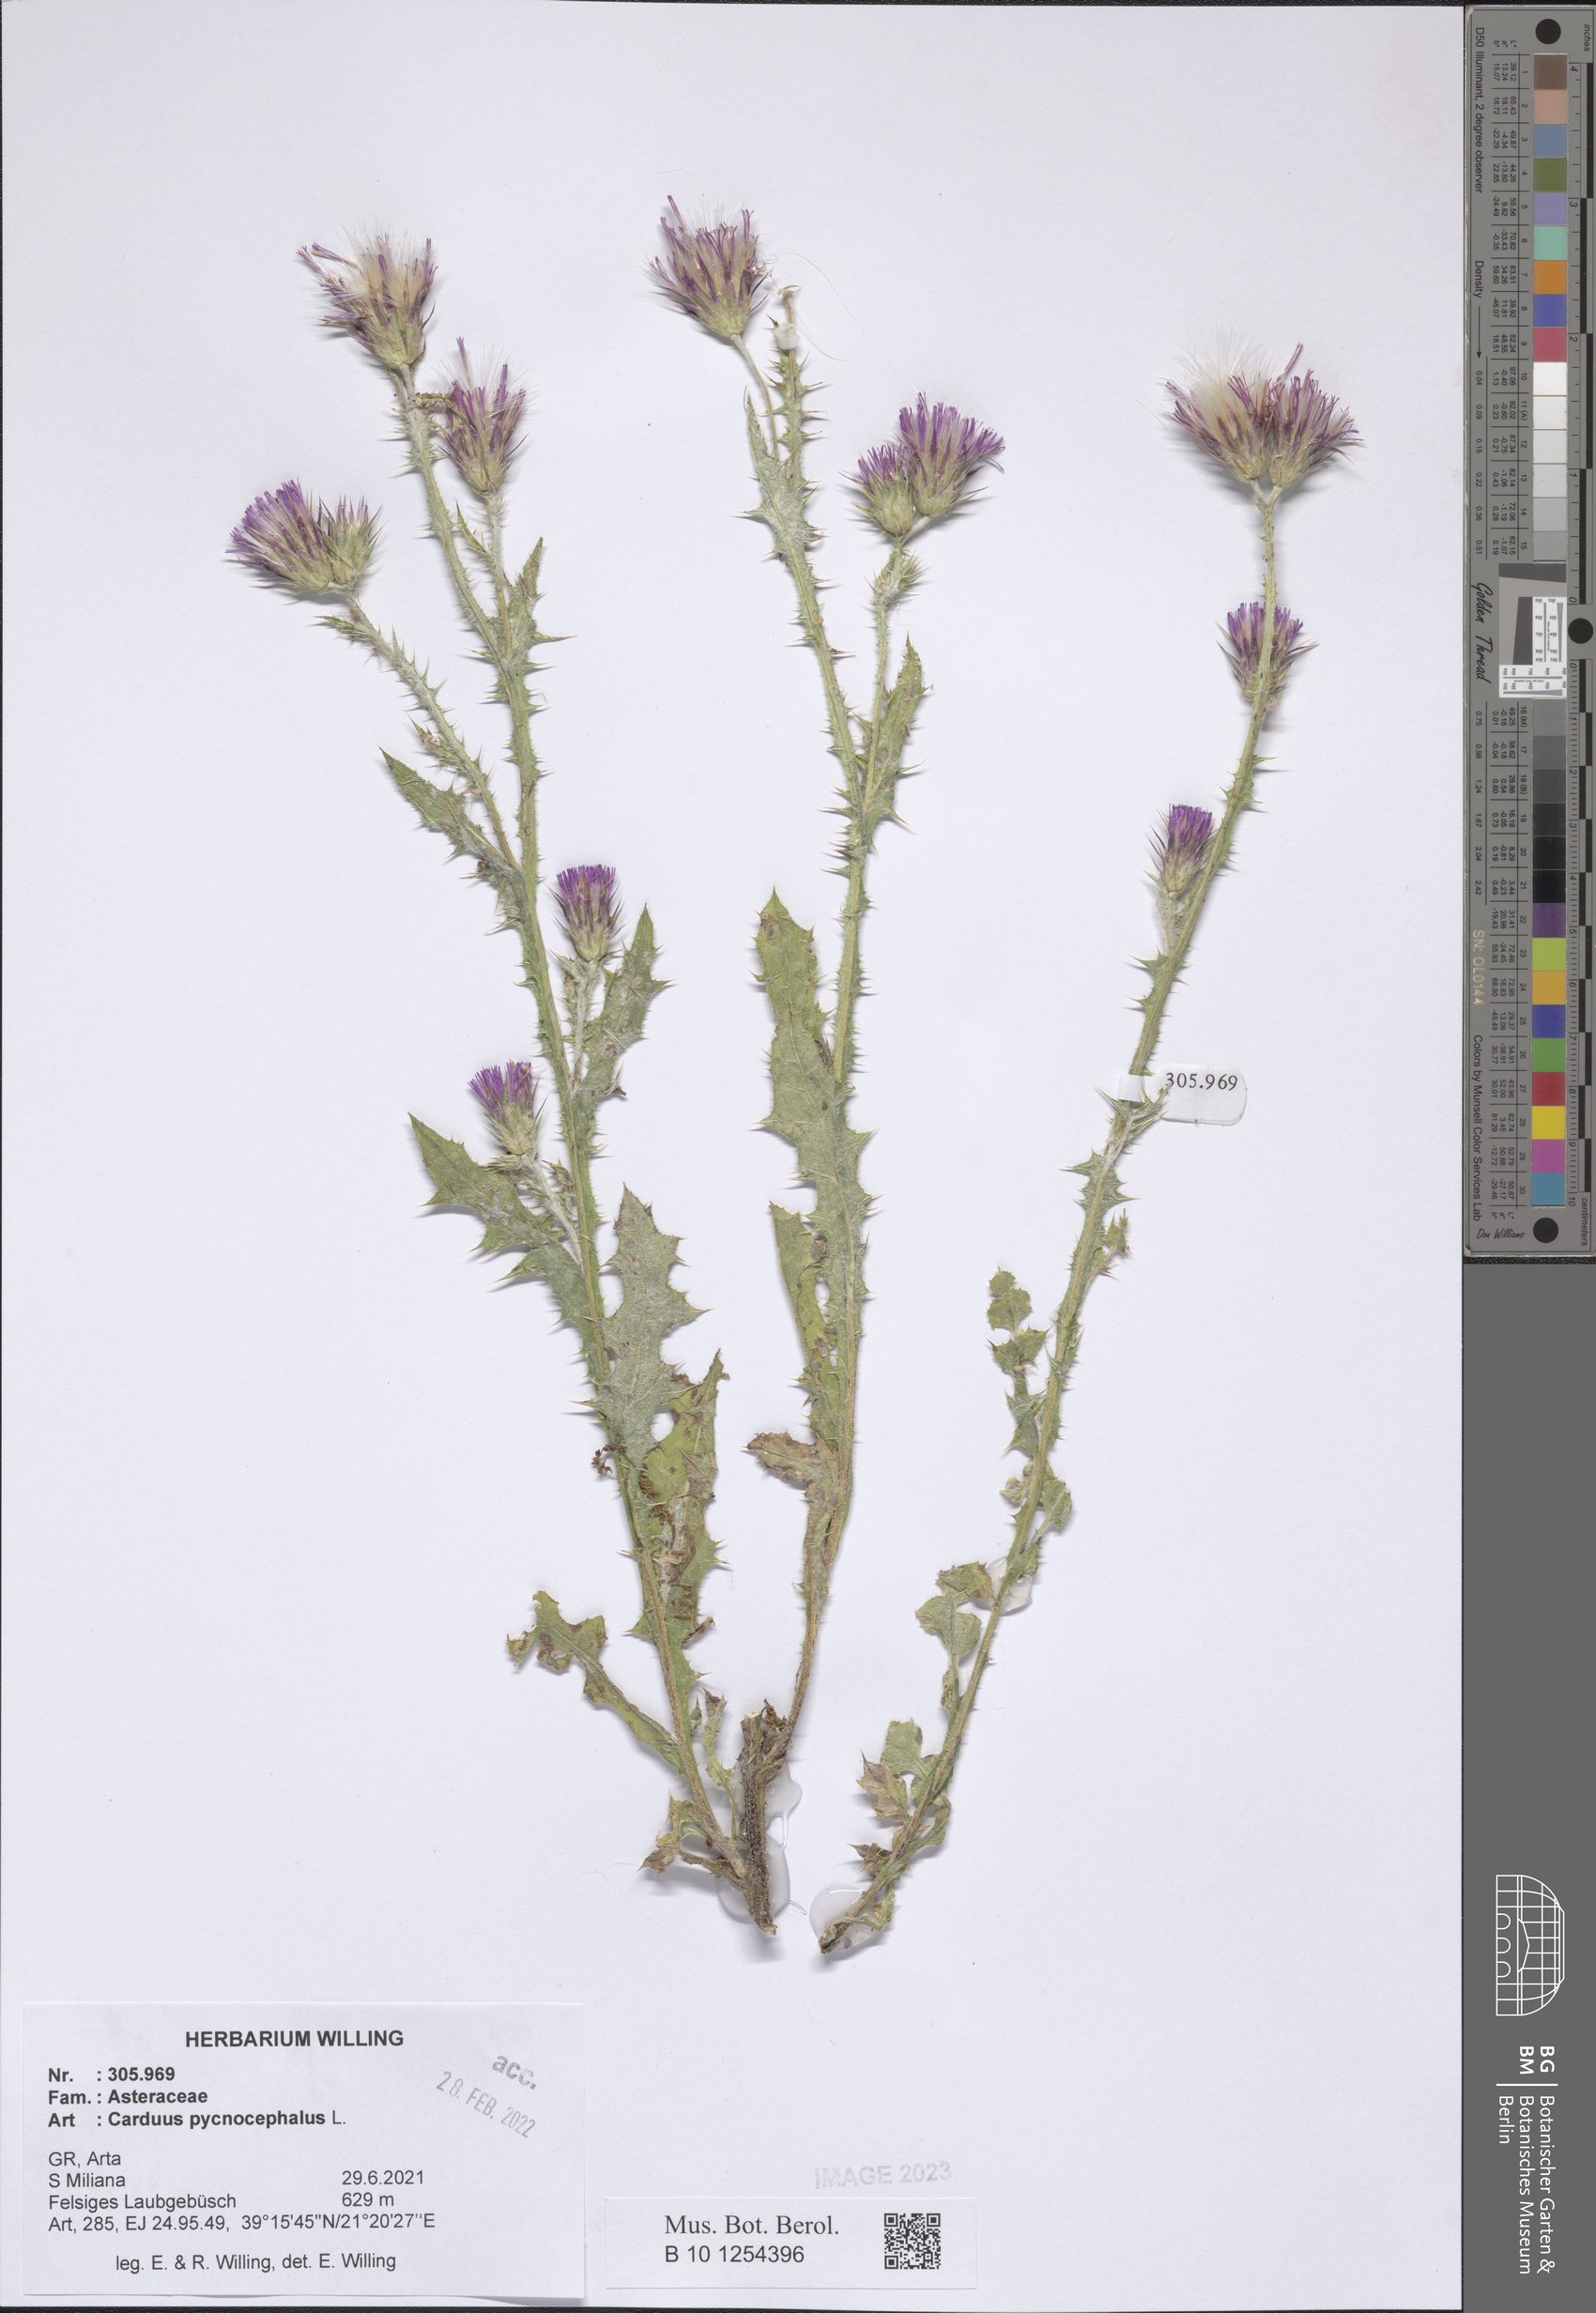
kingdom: Plantae
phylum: Tracheophyta
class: Magnoliopsida
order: Asterales
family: Asteraceae
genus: Carduus
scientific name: Carduus pycnocephalus
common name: Plymouth thistle
